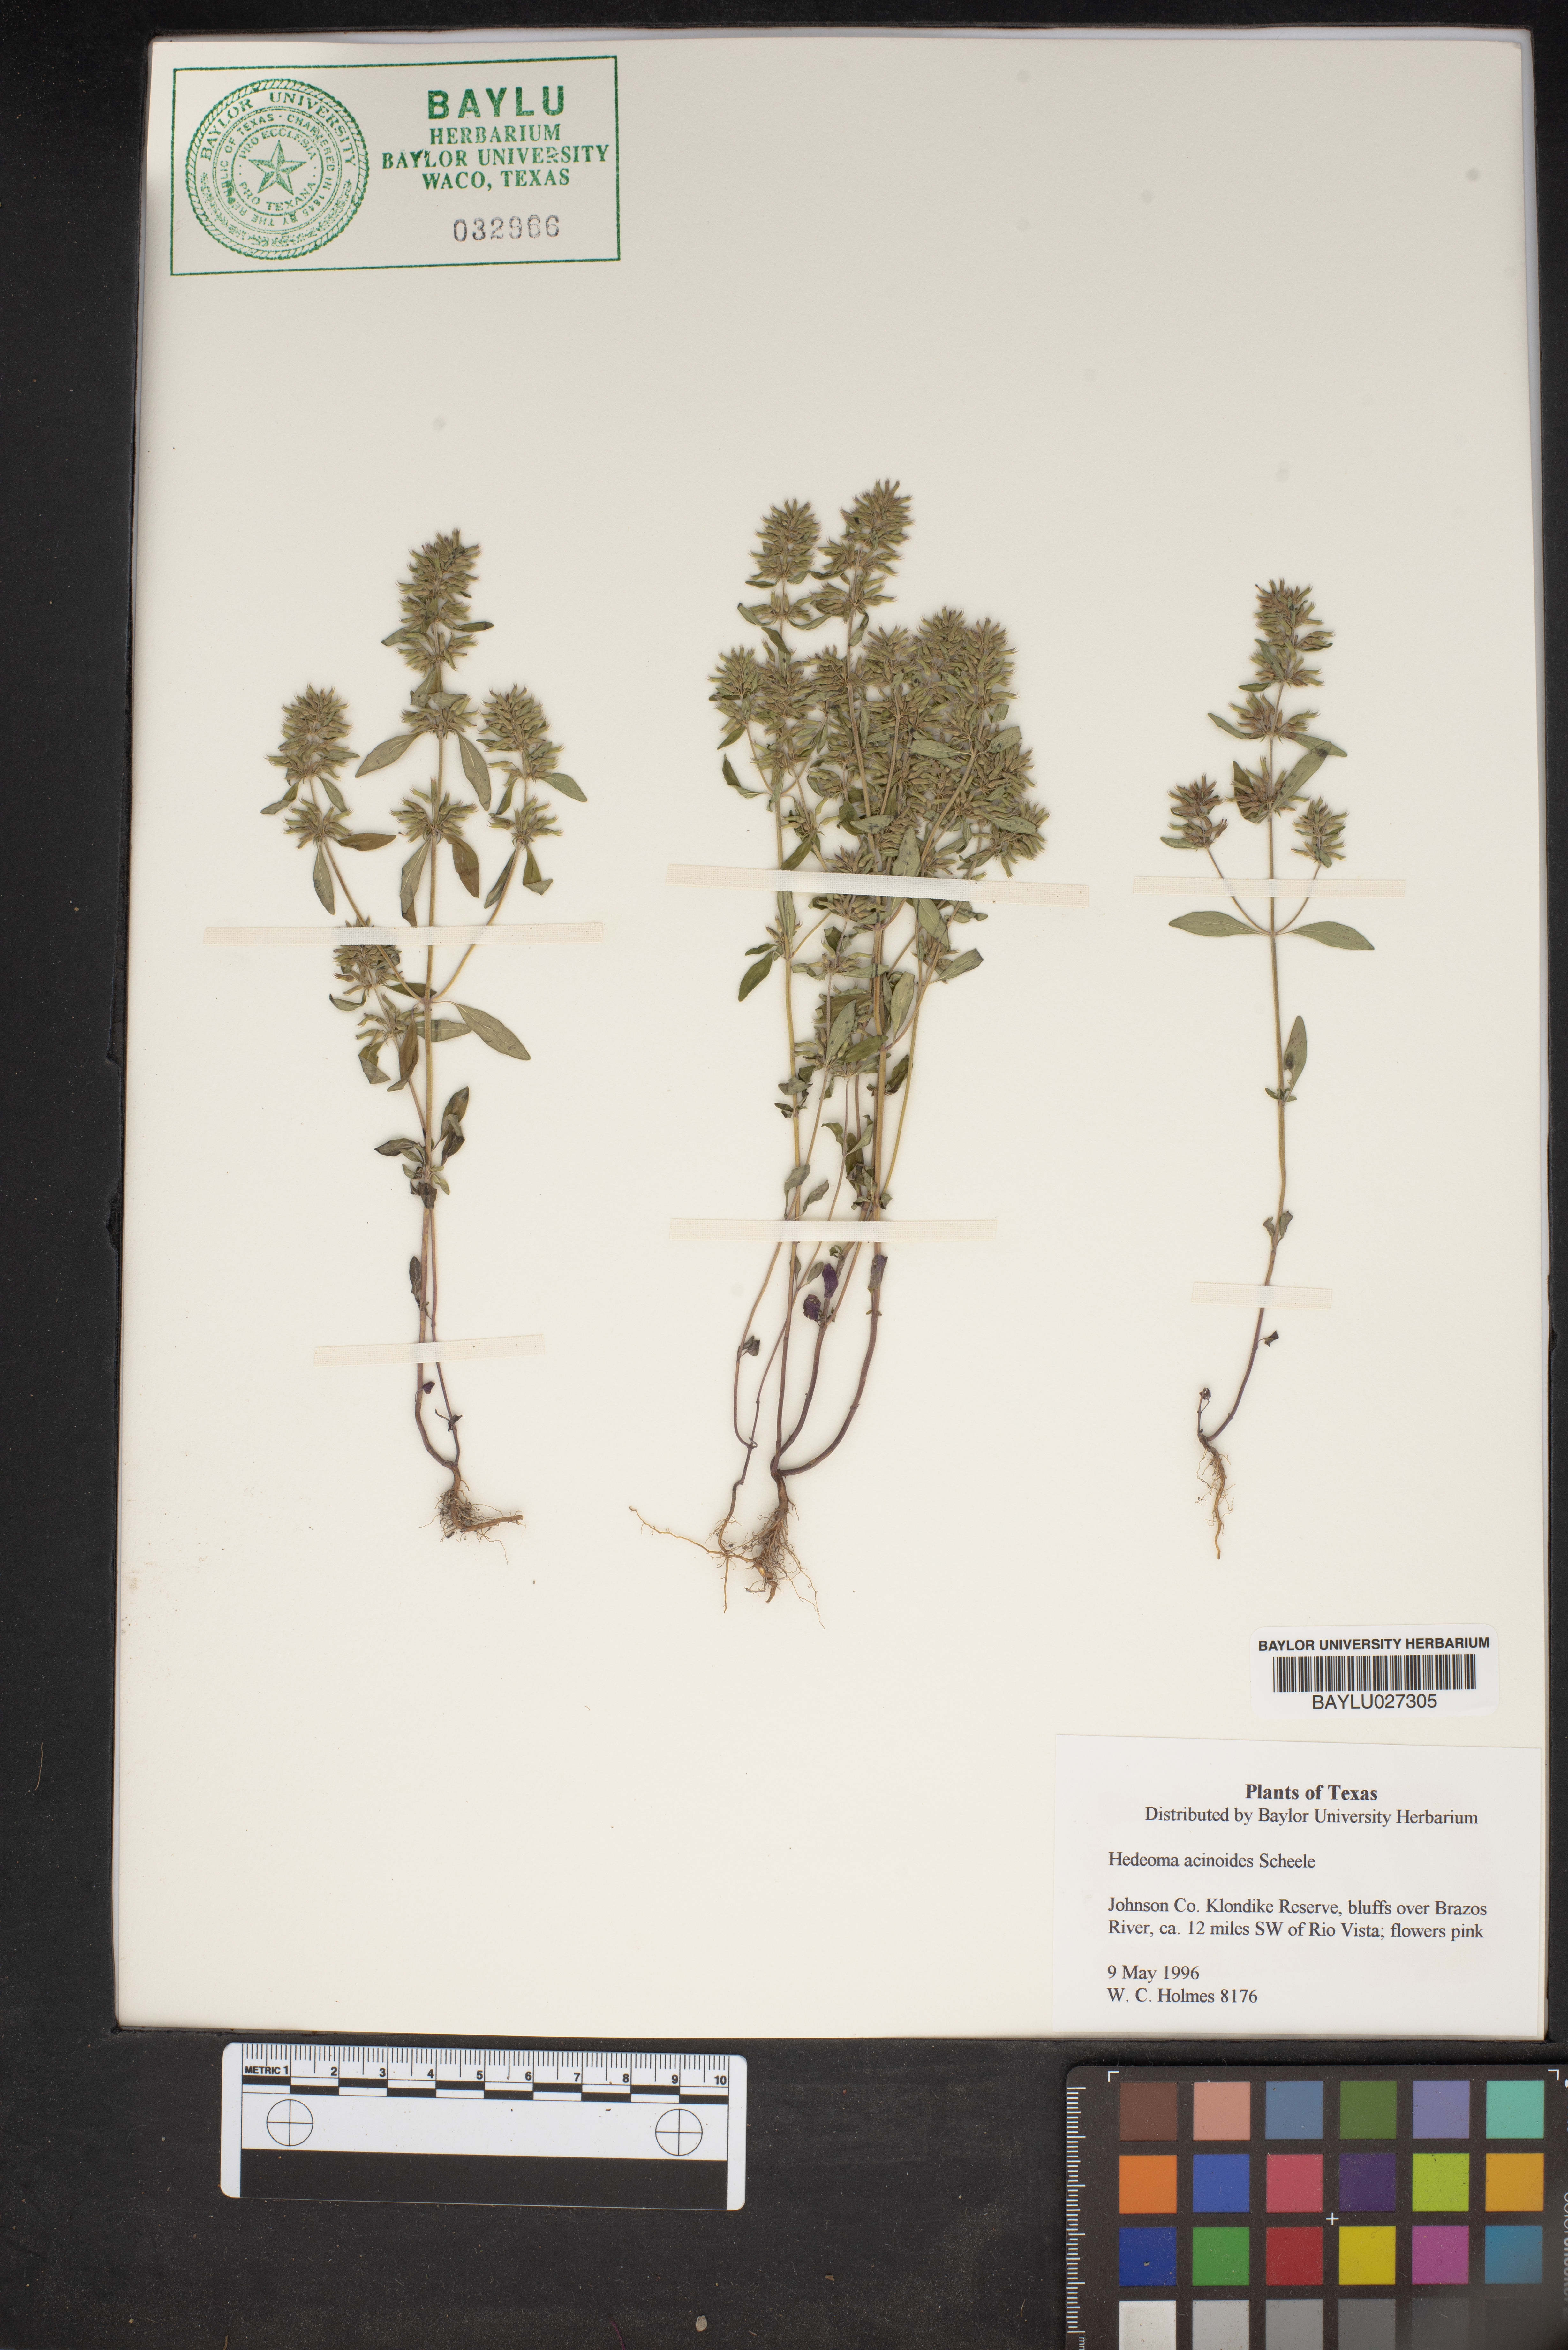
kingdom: Plantae
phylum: Tracheophyta
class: Magnoliopsida
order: Lamiales
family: Lamiaceae
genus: Hedeoma
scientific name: Hedeoma acinoides
